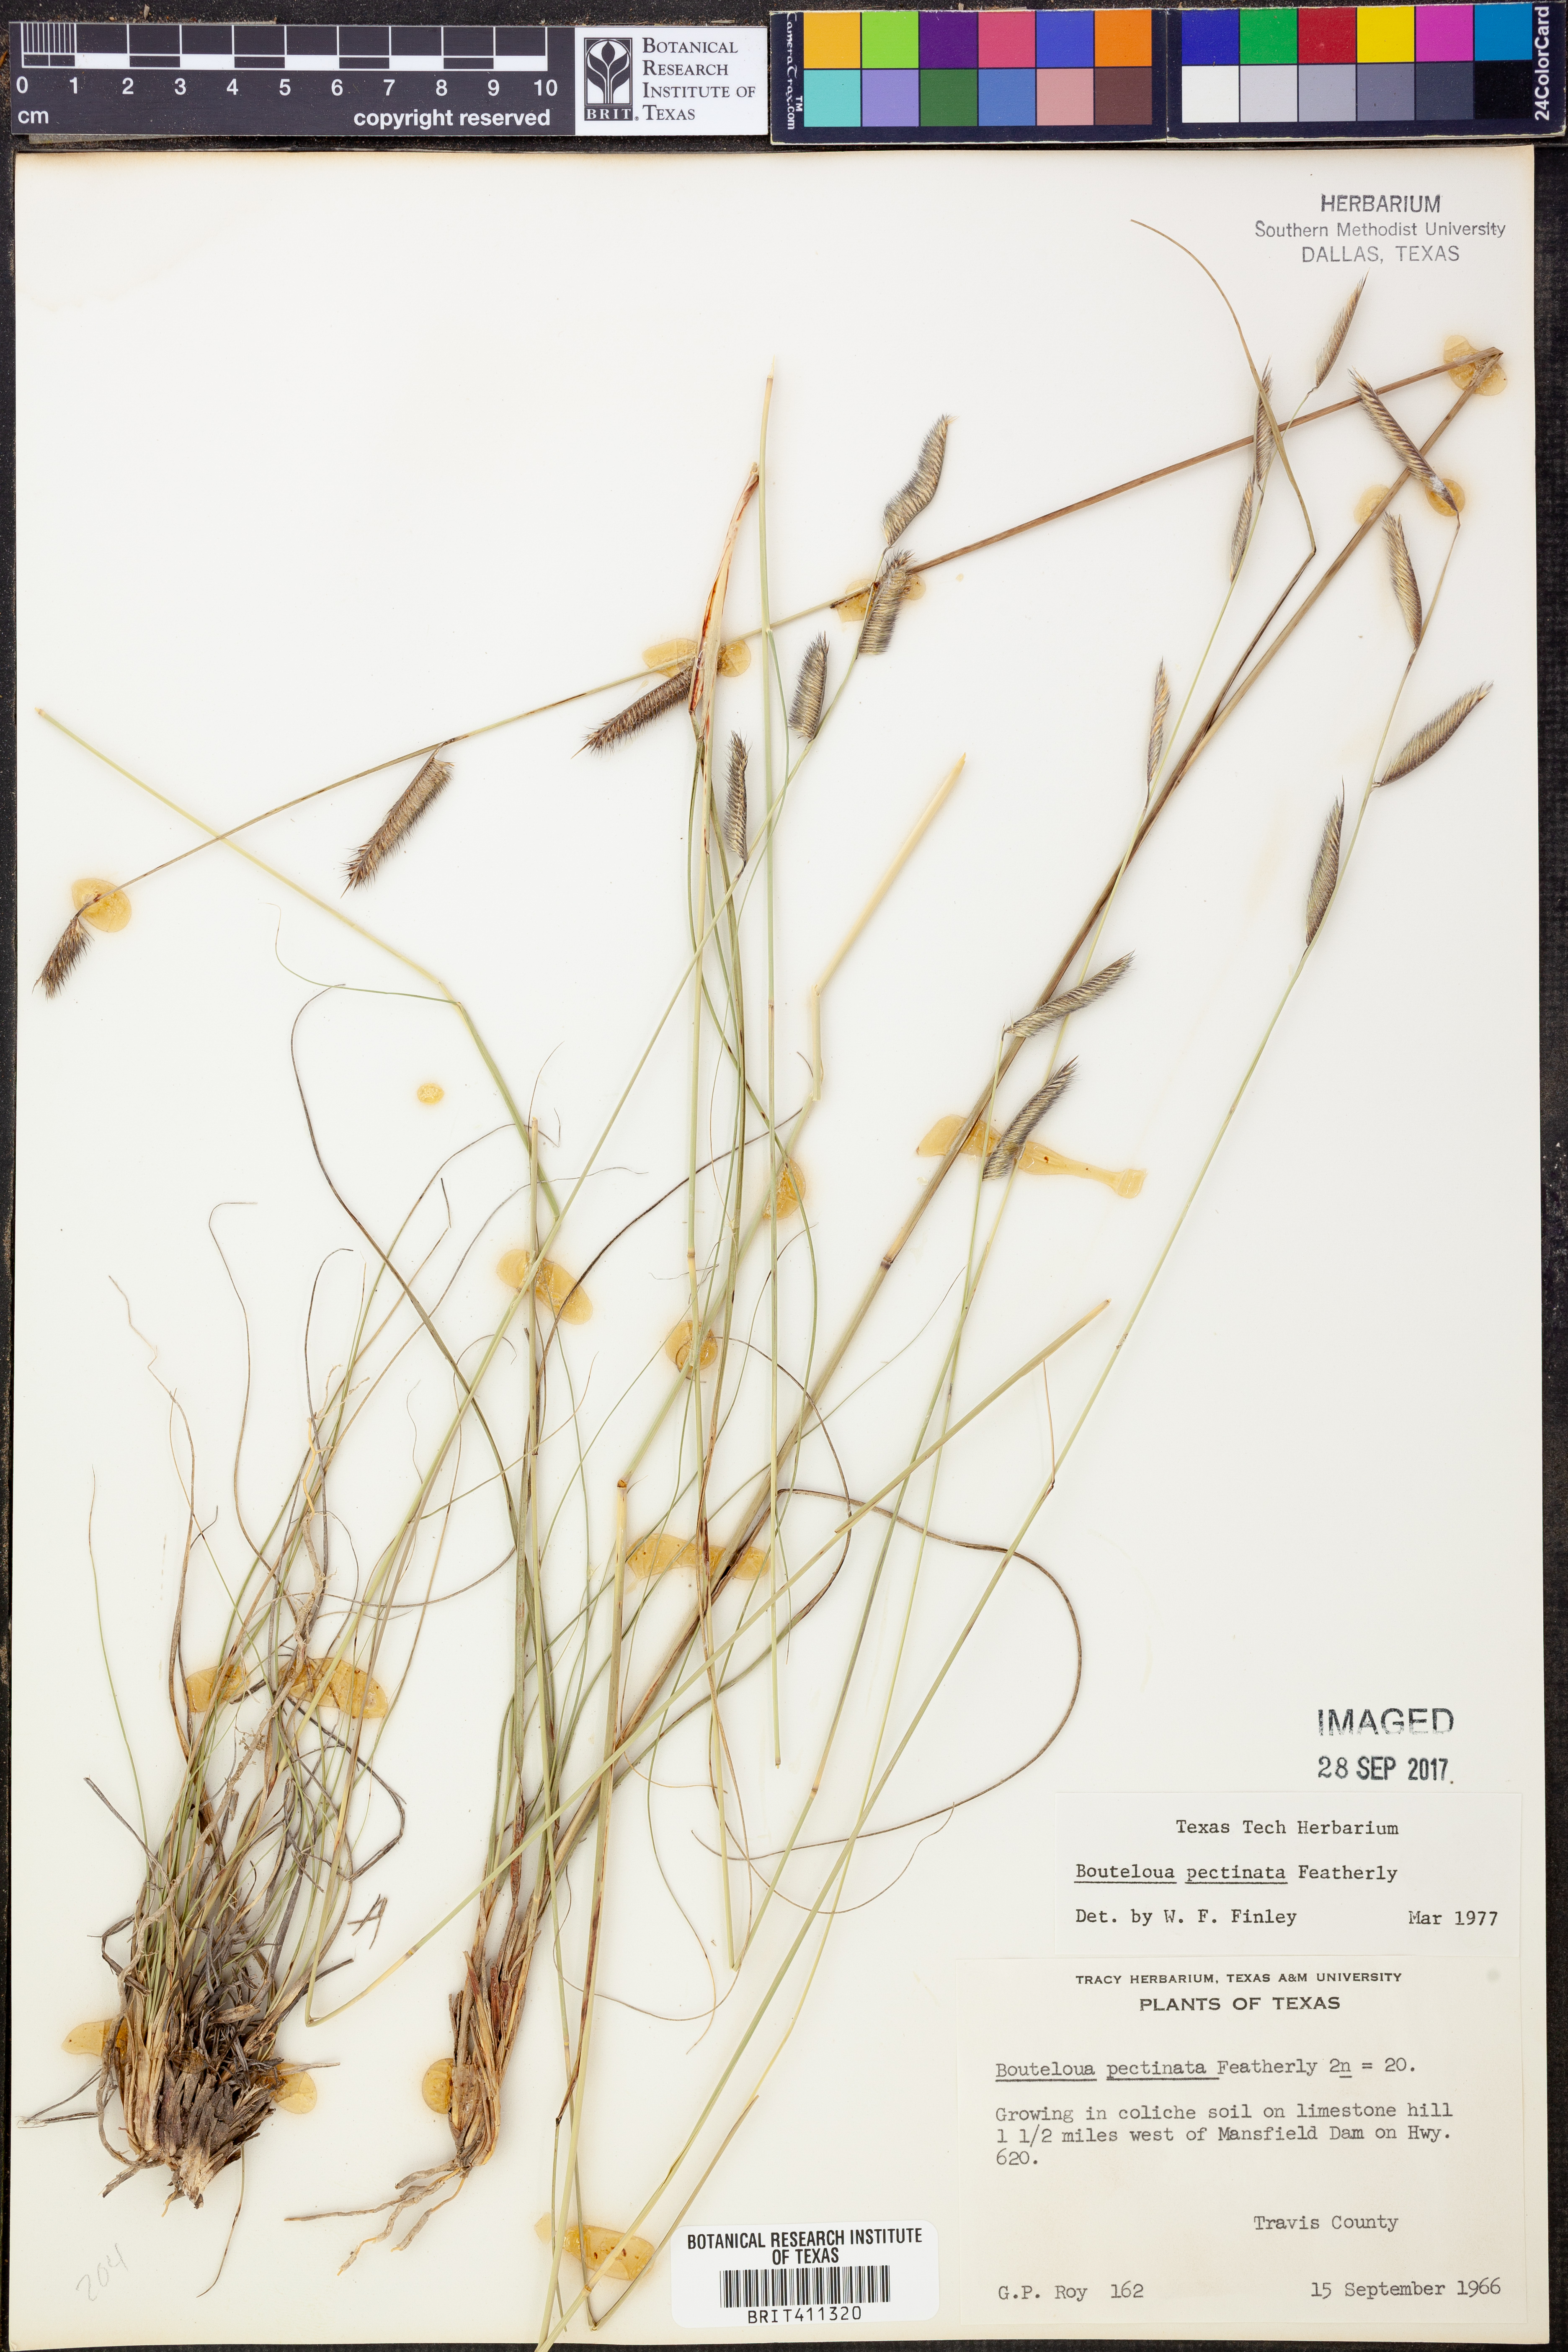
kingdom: Plantae
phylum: Tracheophyta
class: Liliopsida
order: Poales
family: Poaceae
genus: Bouteloua
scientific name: Bouteloua pectinata
